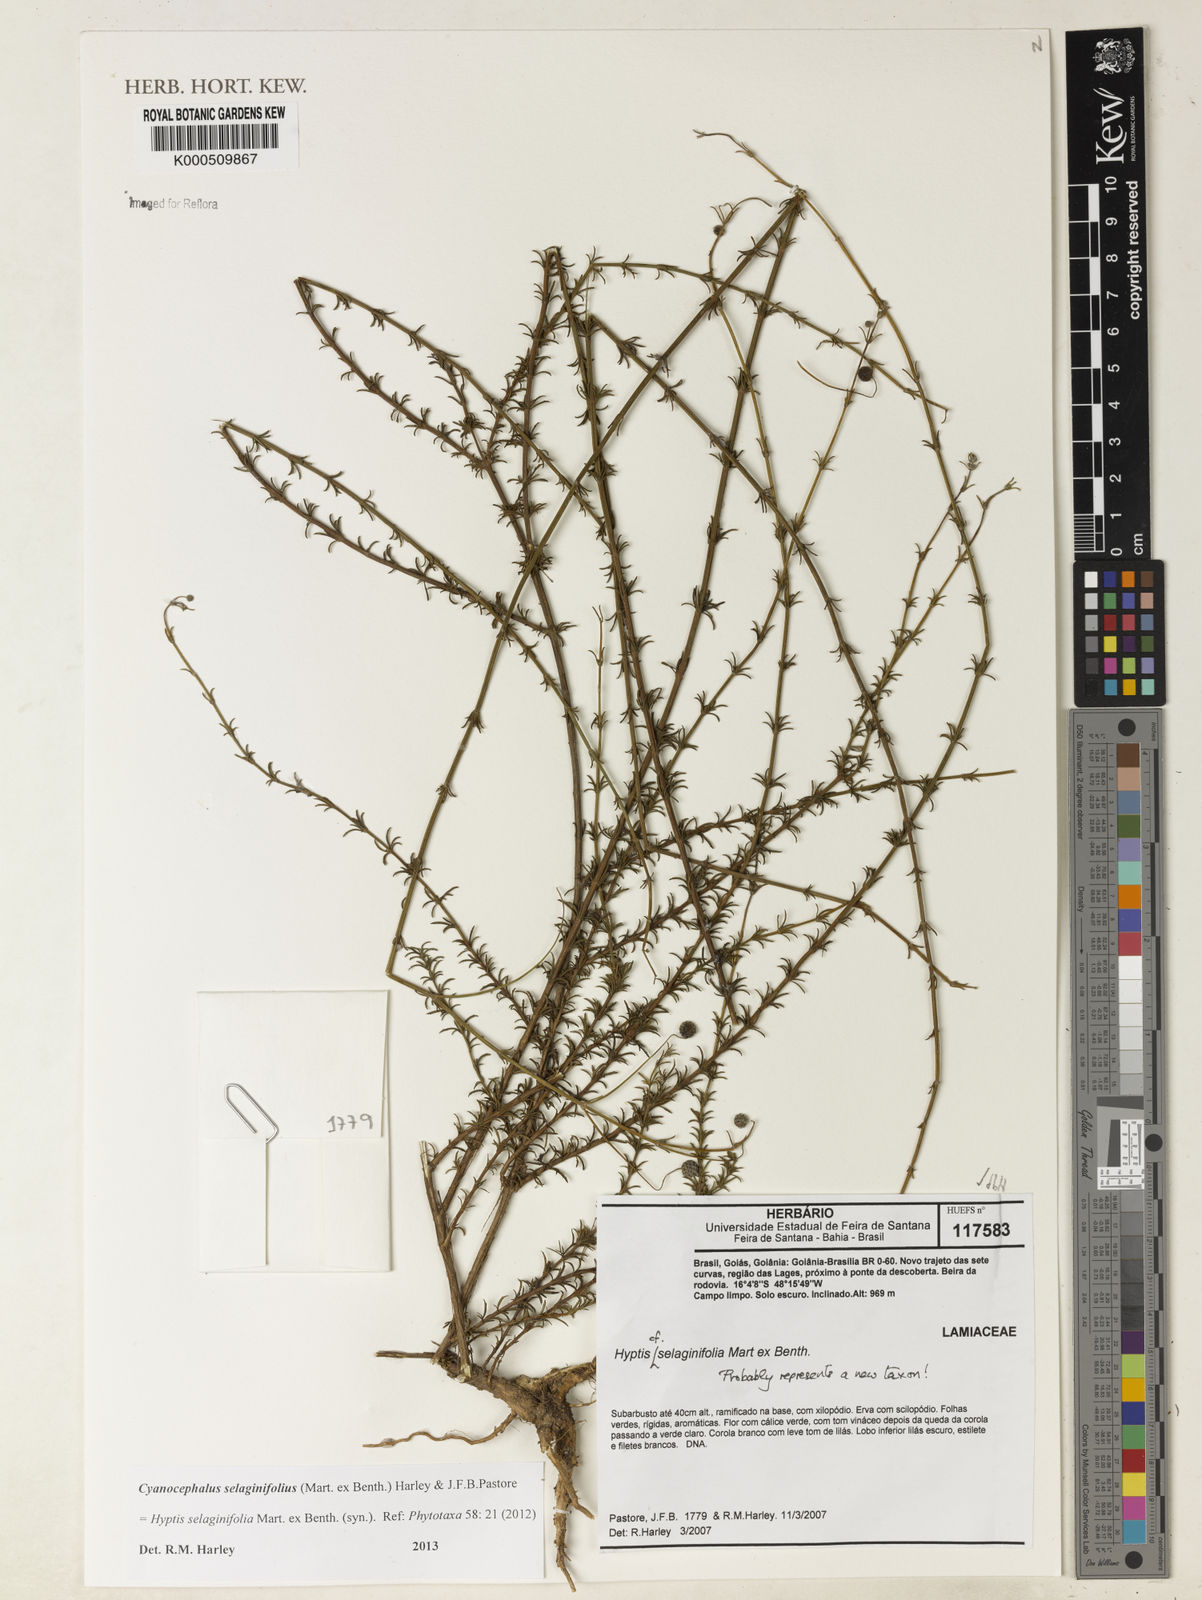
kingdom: Plantae
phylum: Tracheophyta
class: Magnoliopsida
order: Lamiales
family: Lamiaceae
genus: Cyanocephalus
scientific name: Cyanocephalus selaginifolius
